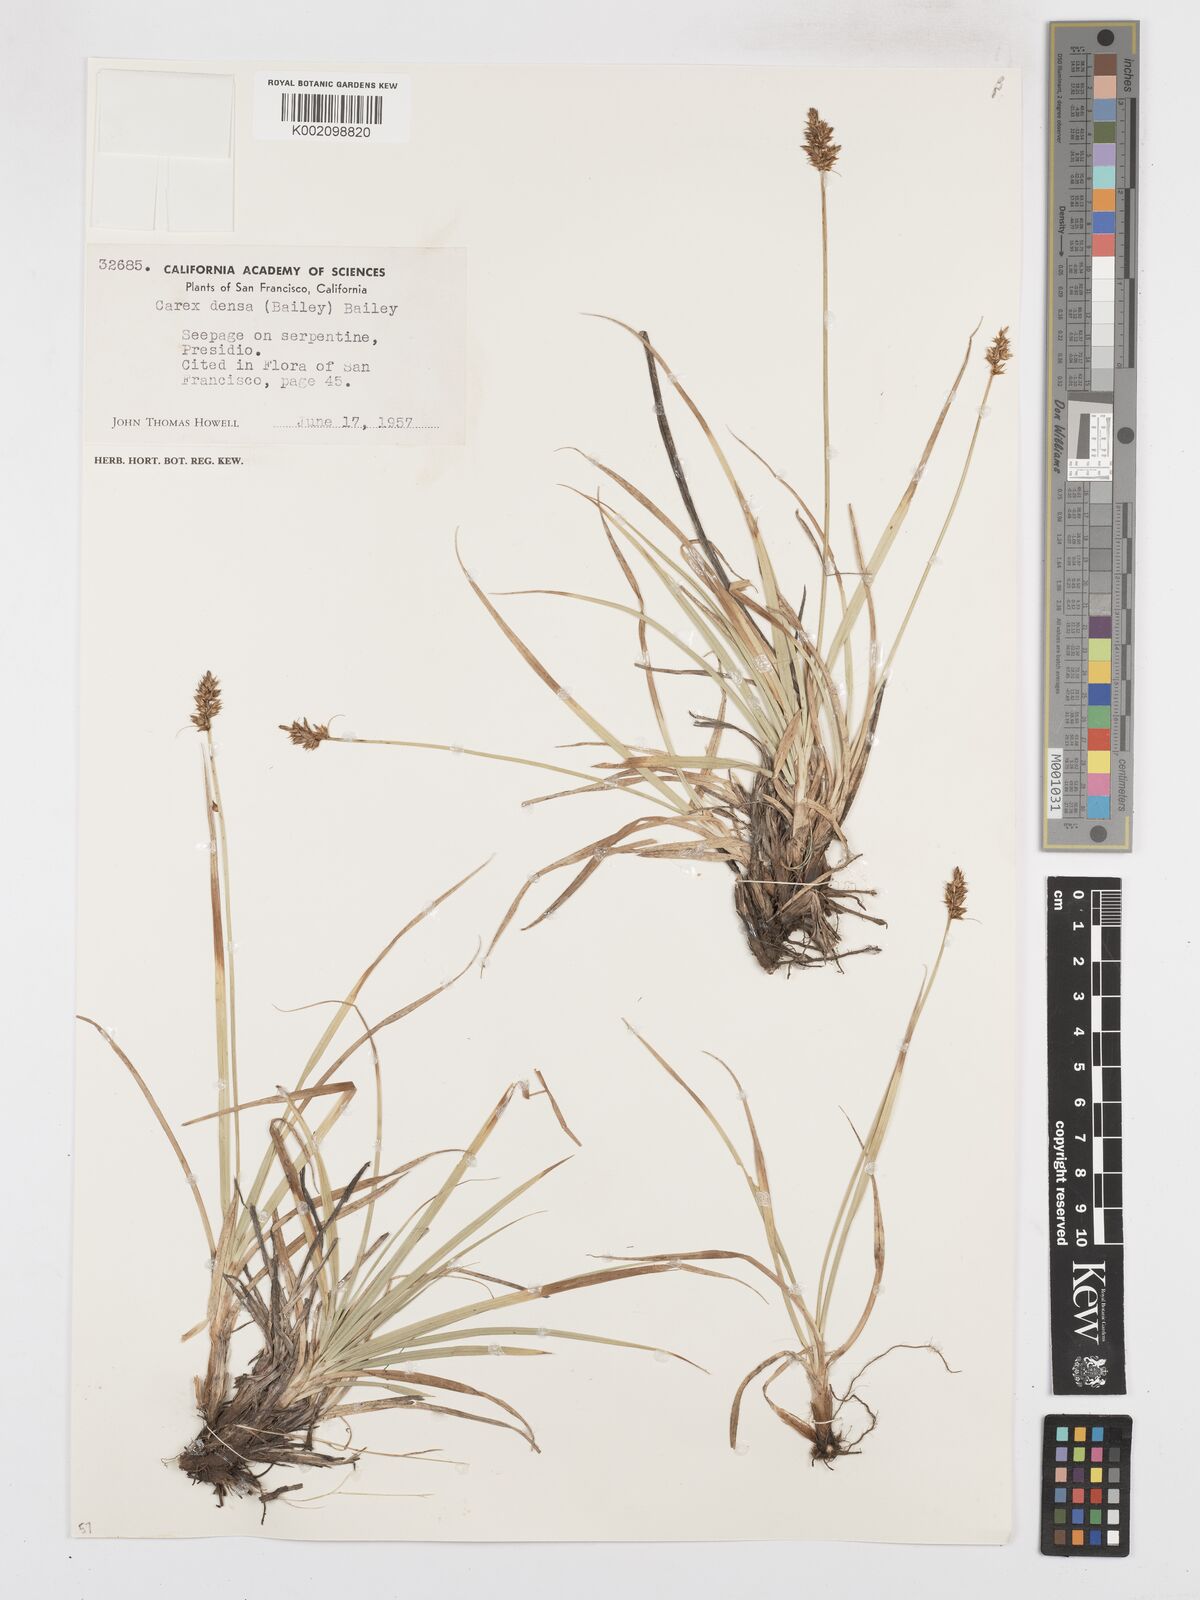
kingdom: Plantae
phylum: Tracheophyta
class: Liliopsida
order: Poales
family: Cyperaceae
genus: Carex
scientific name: Carex densa
